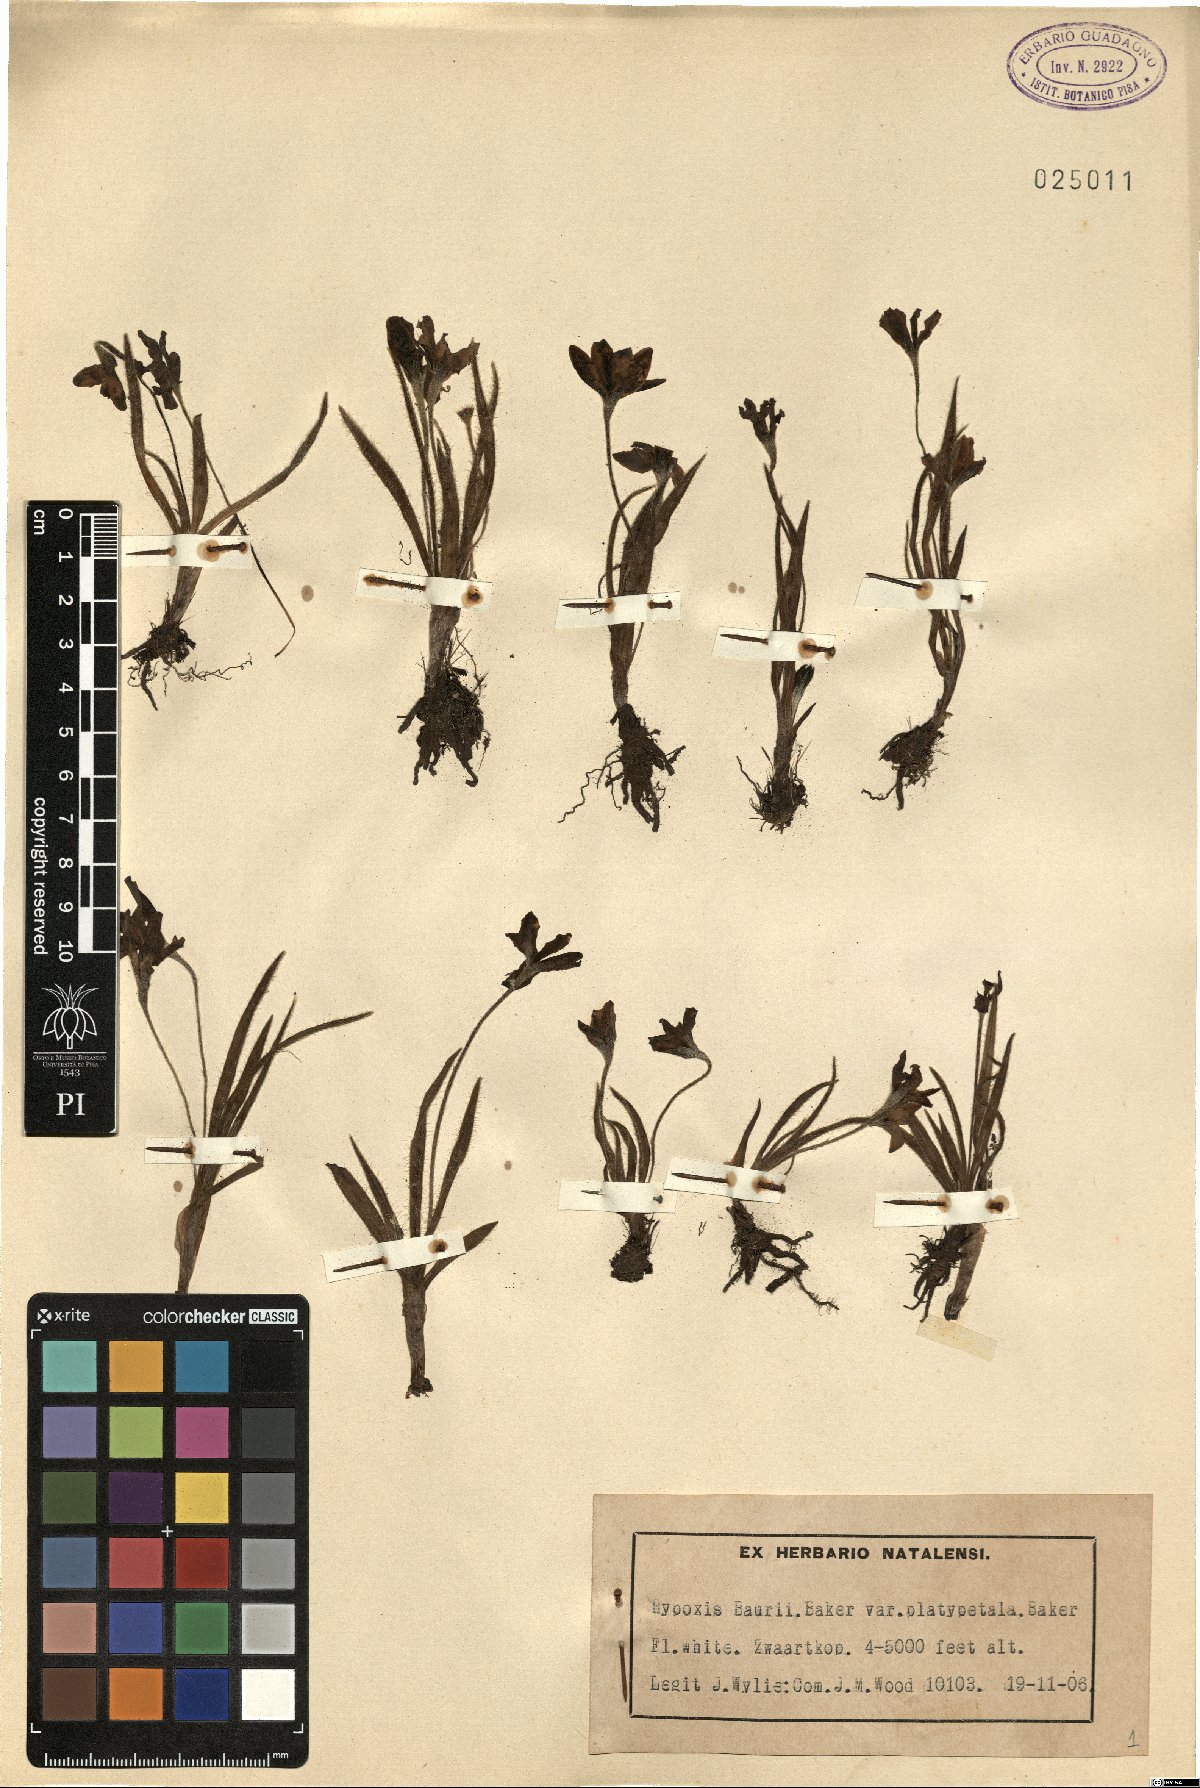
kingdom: Plantae
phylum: Tracheophyta
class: Liliopsida
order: Asparagales
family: Hypoxidaceae
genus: Hypoxis
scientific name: Hypoxis baurii
